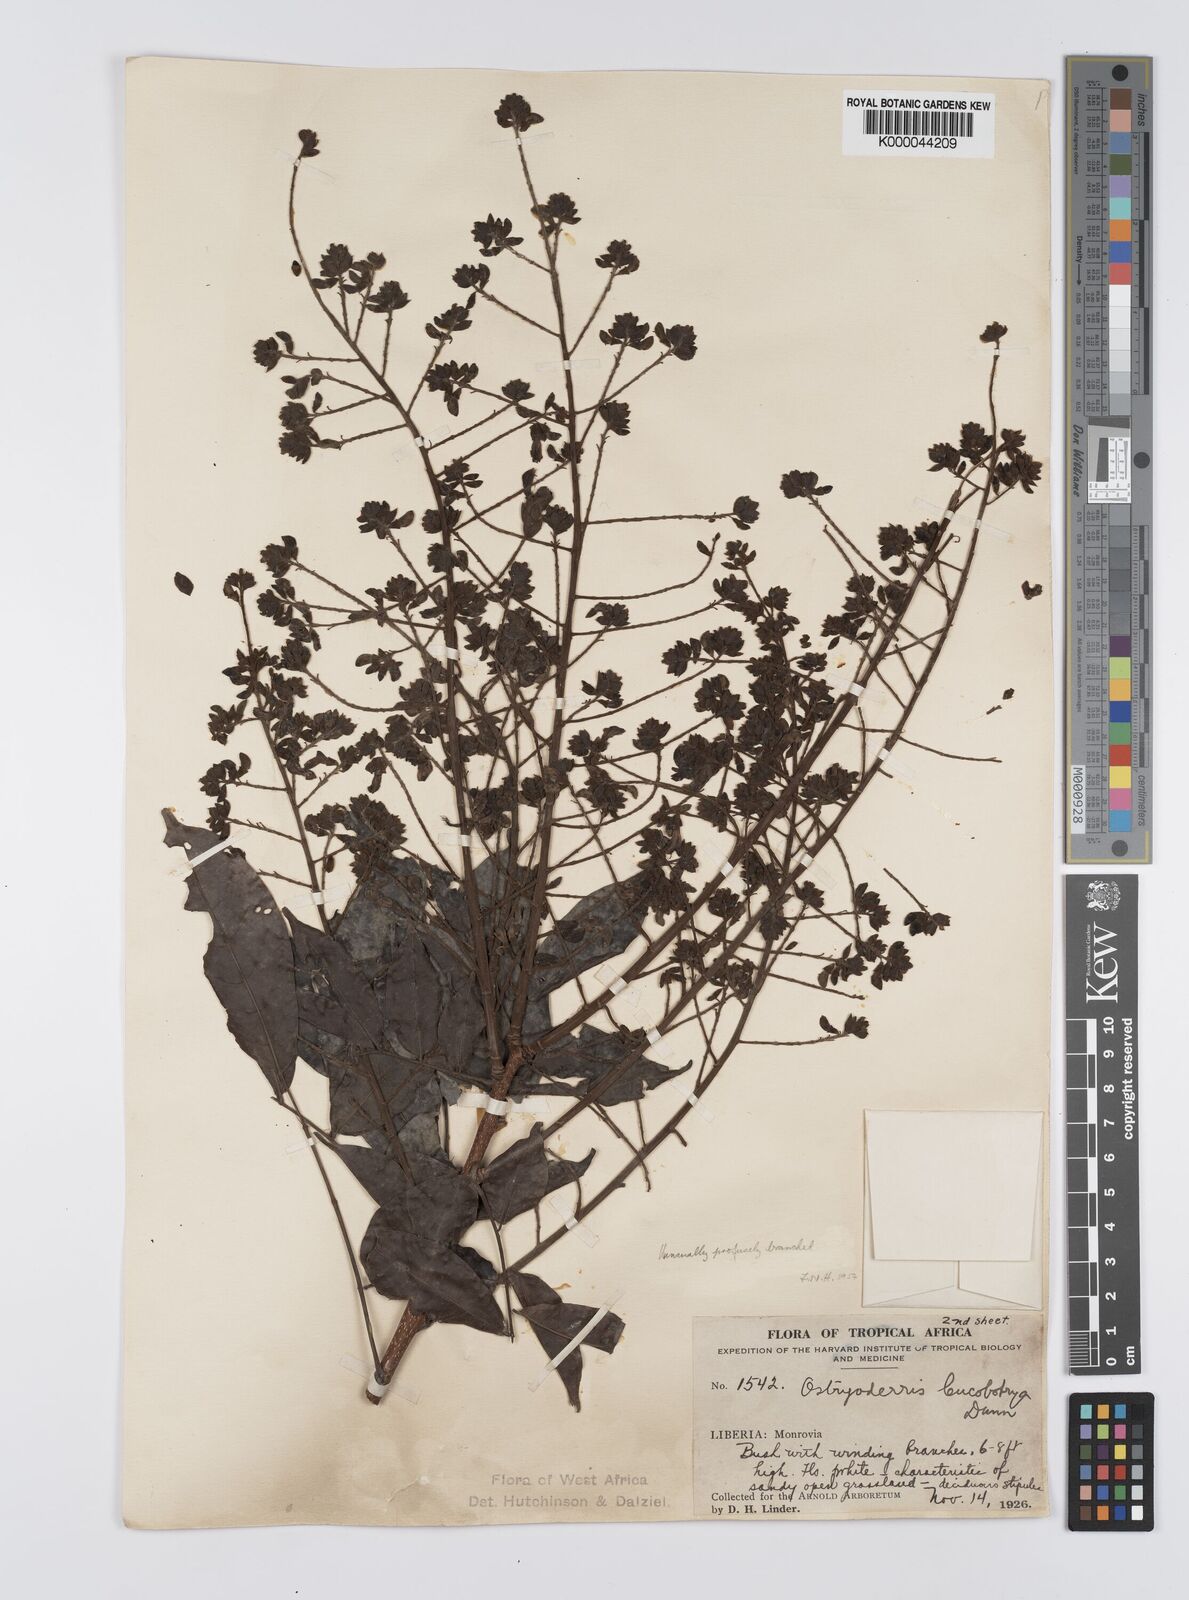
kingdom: Plantae
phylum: Tracheophyta
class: Magnoliopsida
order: Fabales
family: Fabaceae
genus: Aganope
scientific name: Aganope leucobotrya
